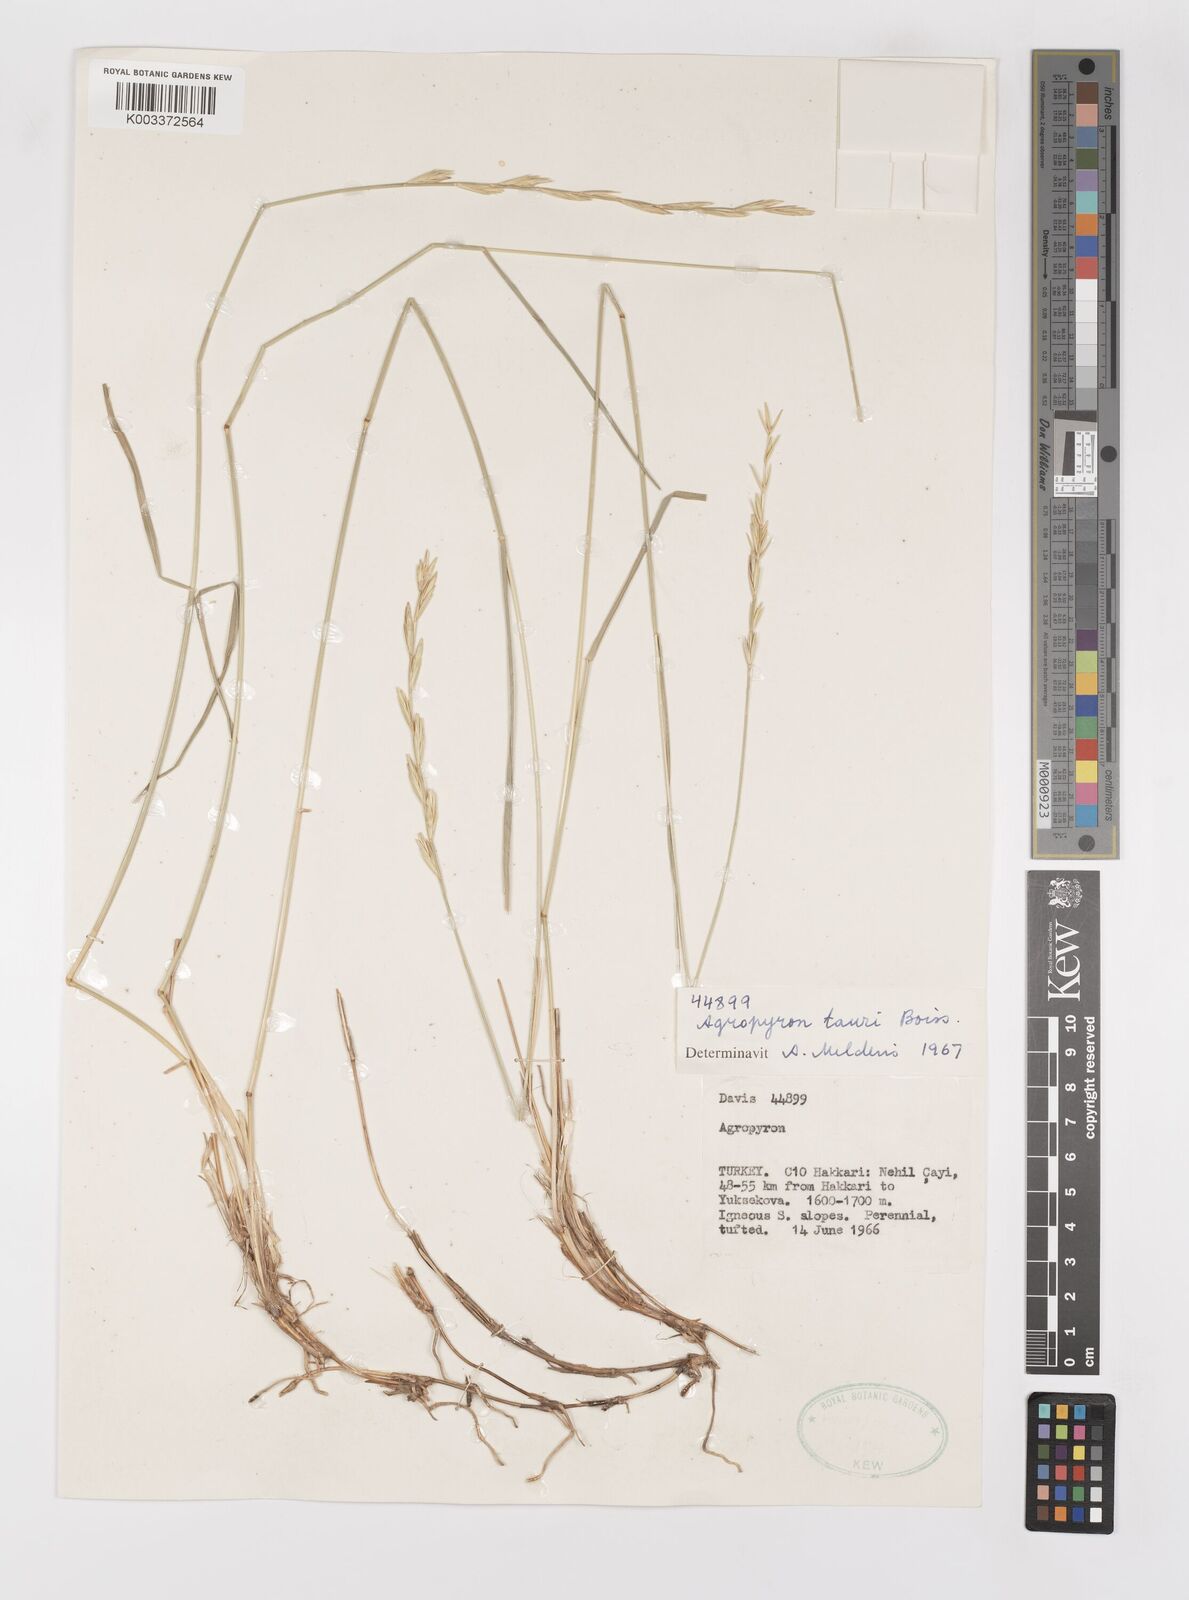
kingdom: Plantae
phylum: Tracheophyta
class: Liliopsida
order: Poales
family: Poaceae
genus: Pseudoroegneria
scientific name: Pseudoroegneria tauri
